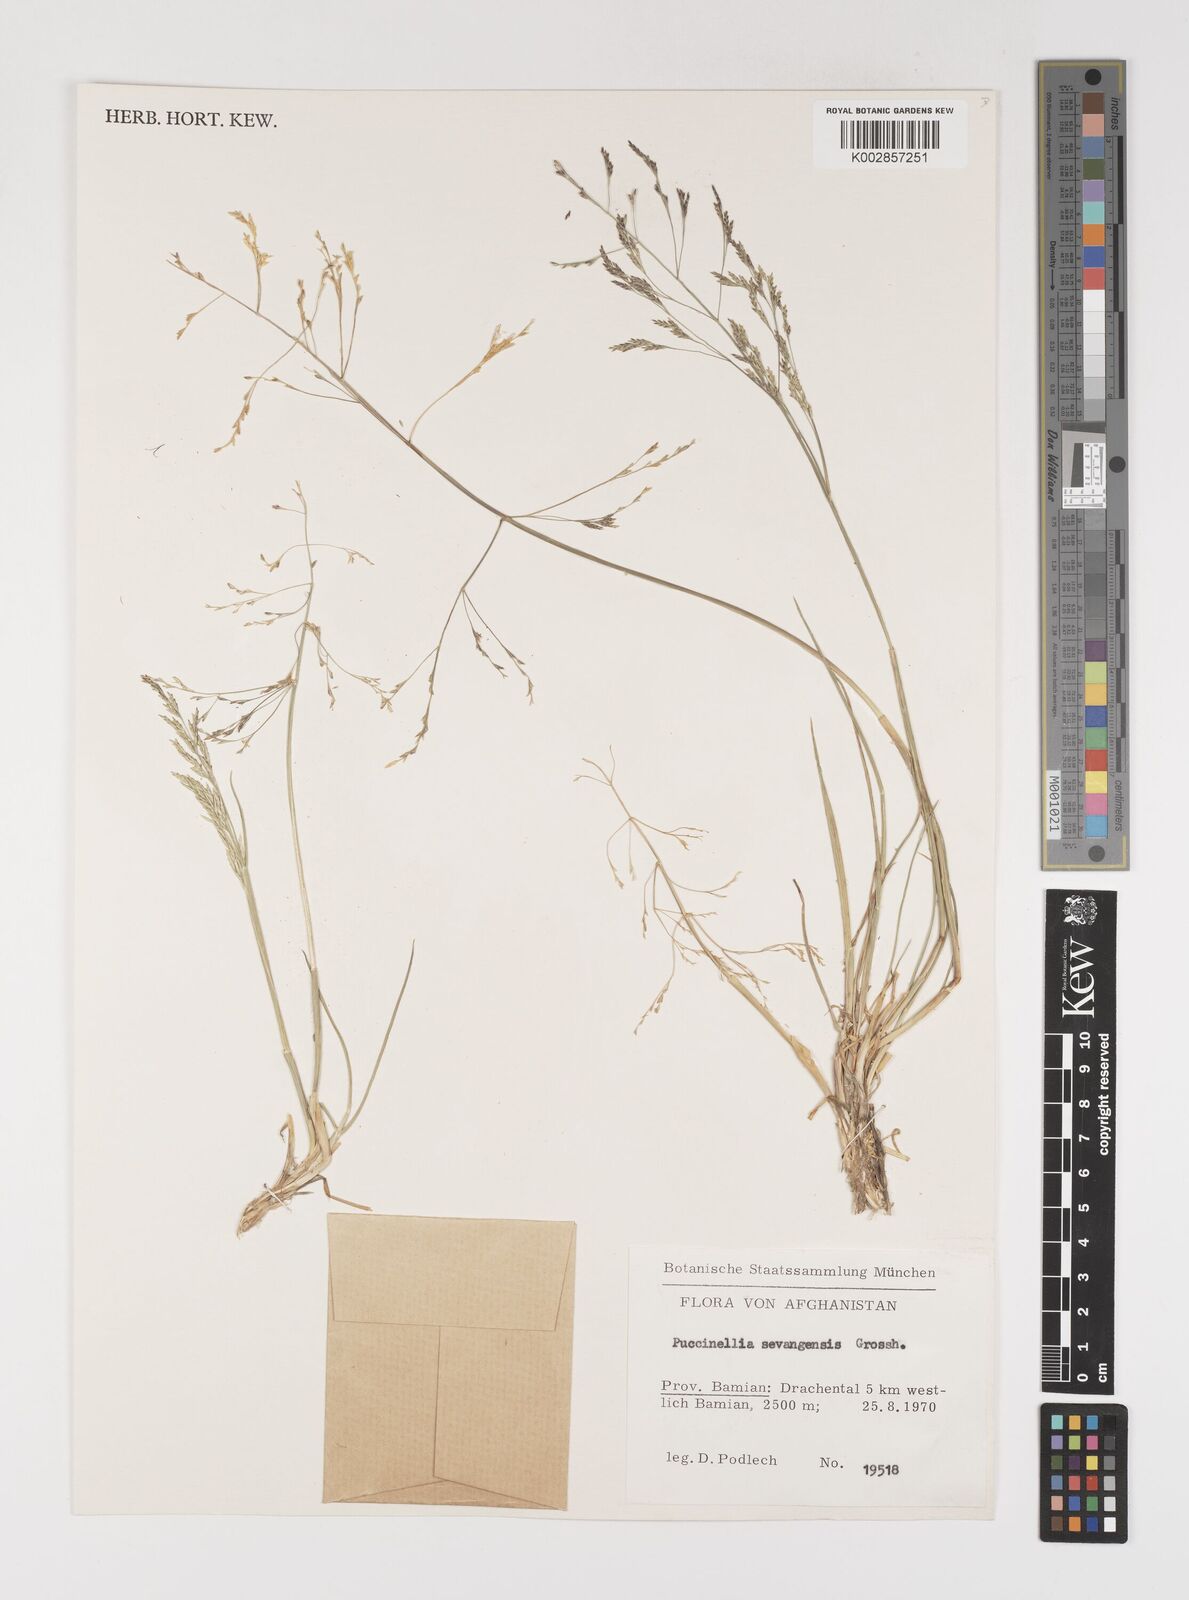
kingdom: Plantae
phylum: Tracheophyta
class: Liliopsida
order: Poales
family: Poaceae
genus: Puccinellia
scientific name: Puccinellia distans
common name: Weeping alkaligrass
